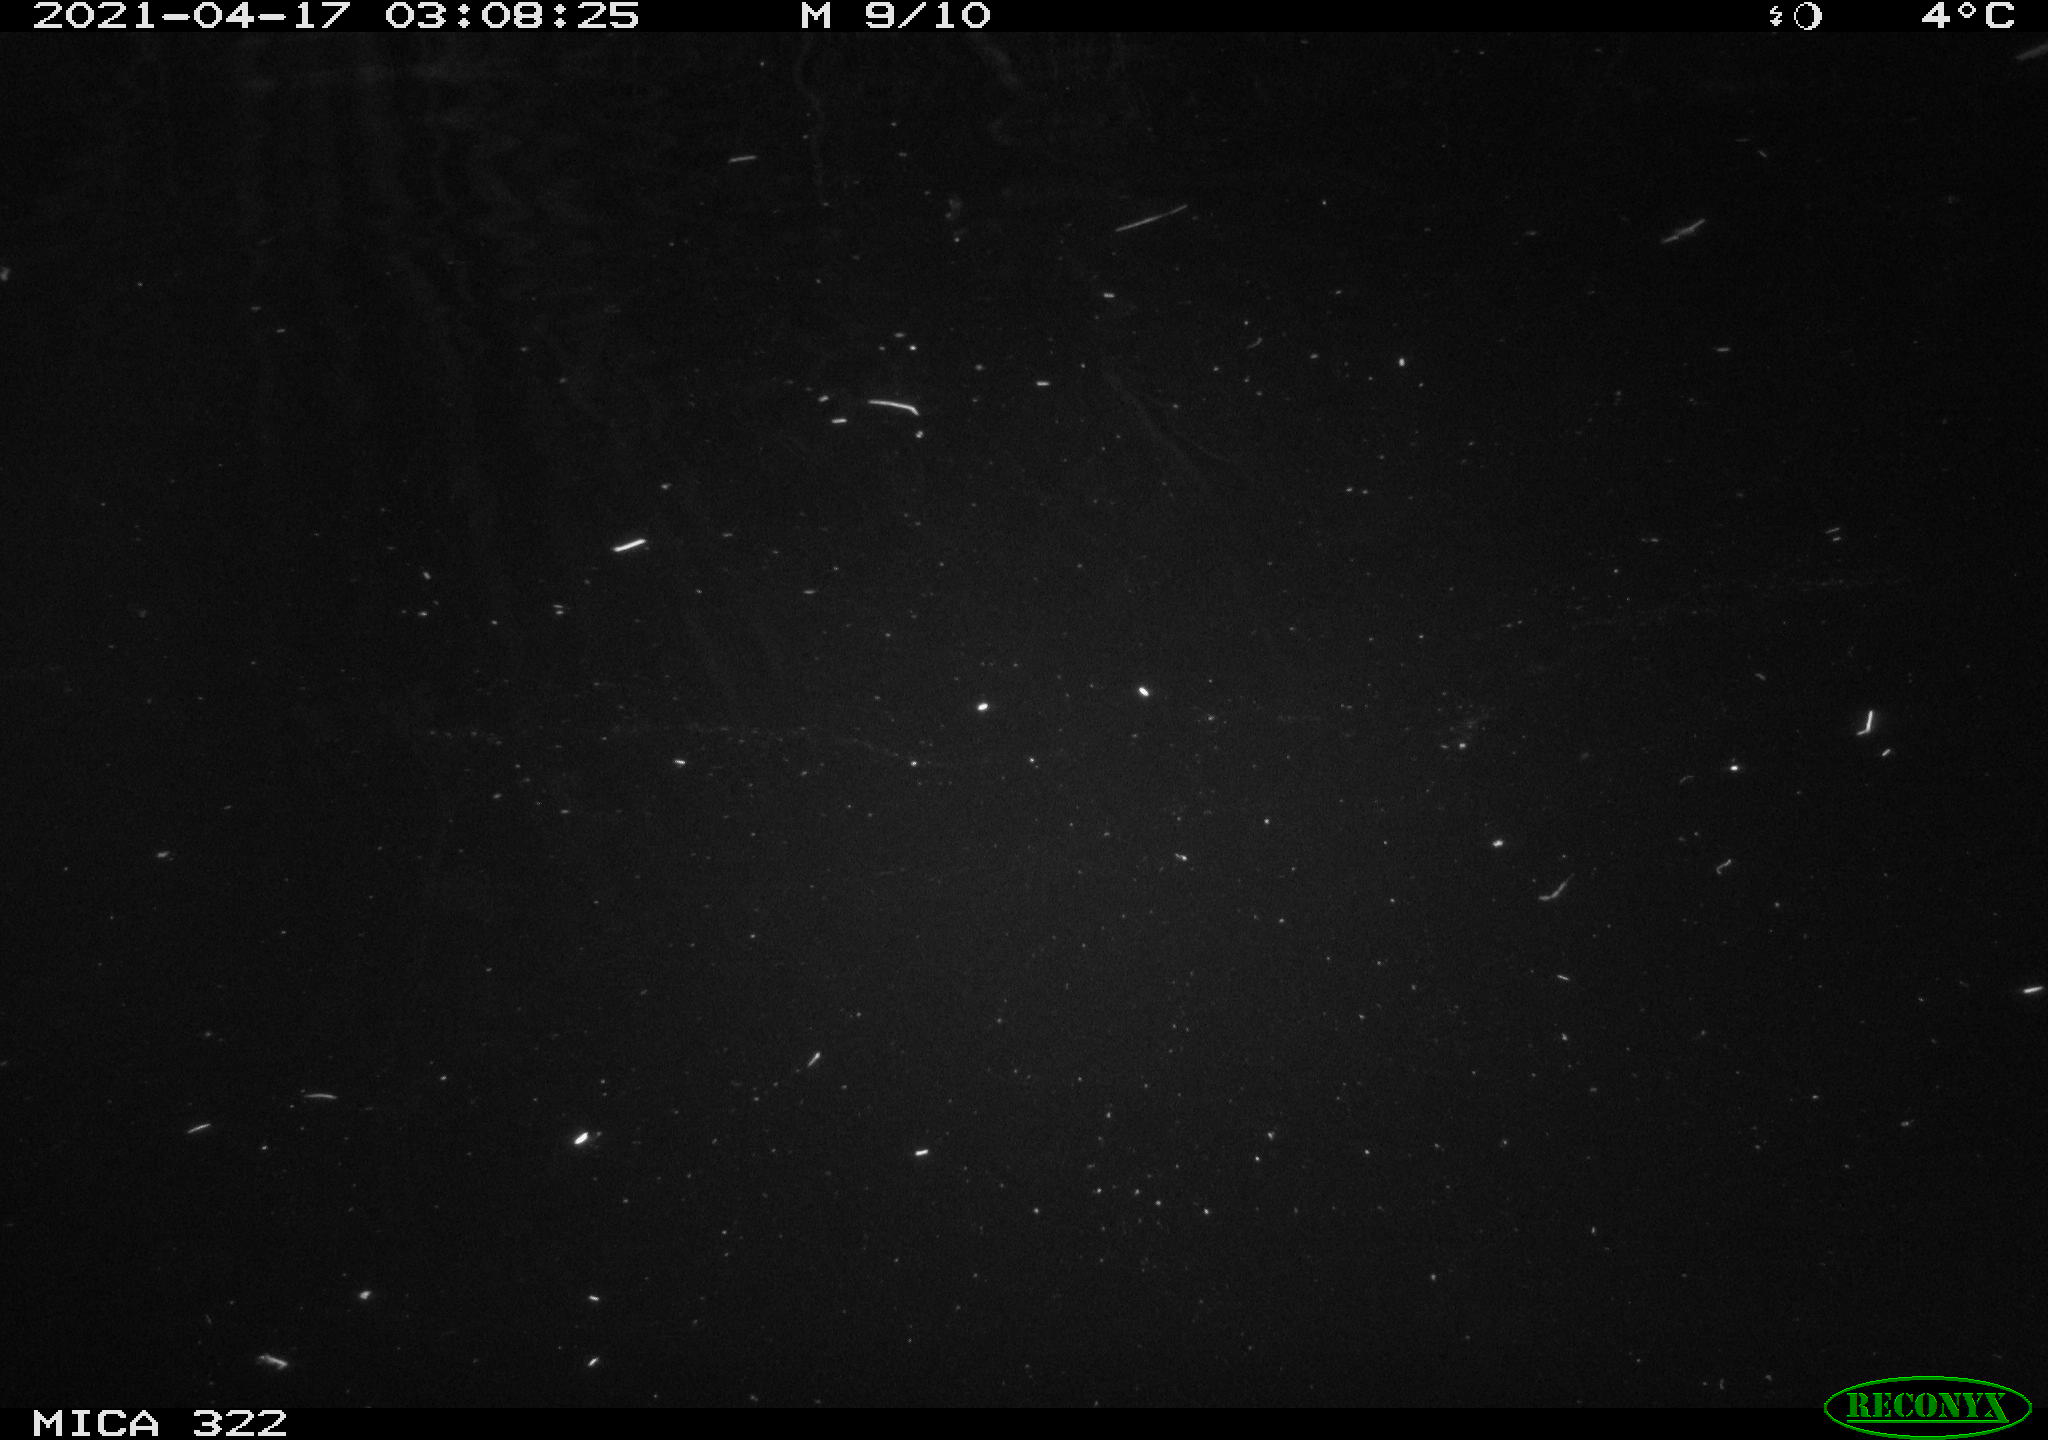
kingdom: Animalia
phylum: Chordata
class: Aves
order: Anseriformes
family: Anatidae
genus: Anas
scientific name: Anas platyrhynchos
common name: Mallard
